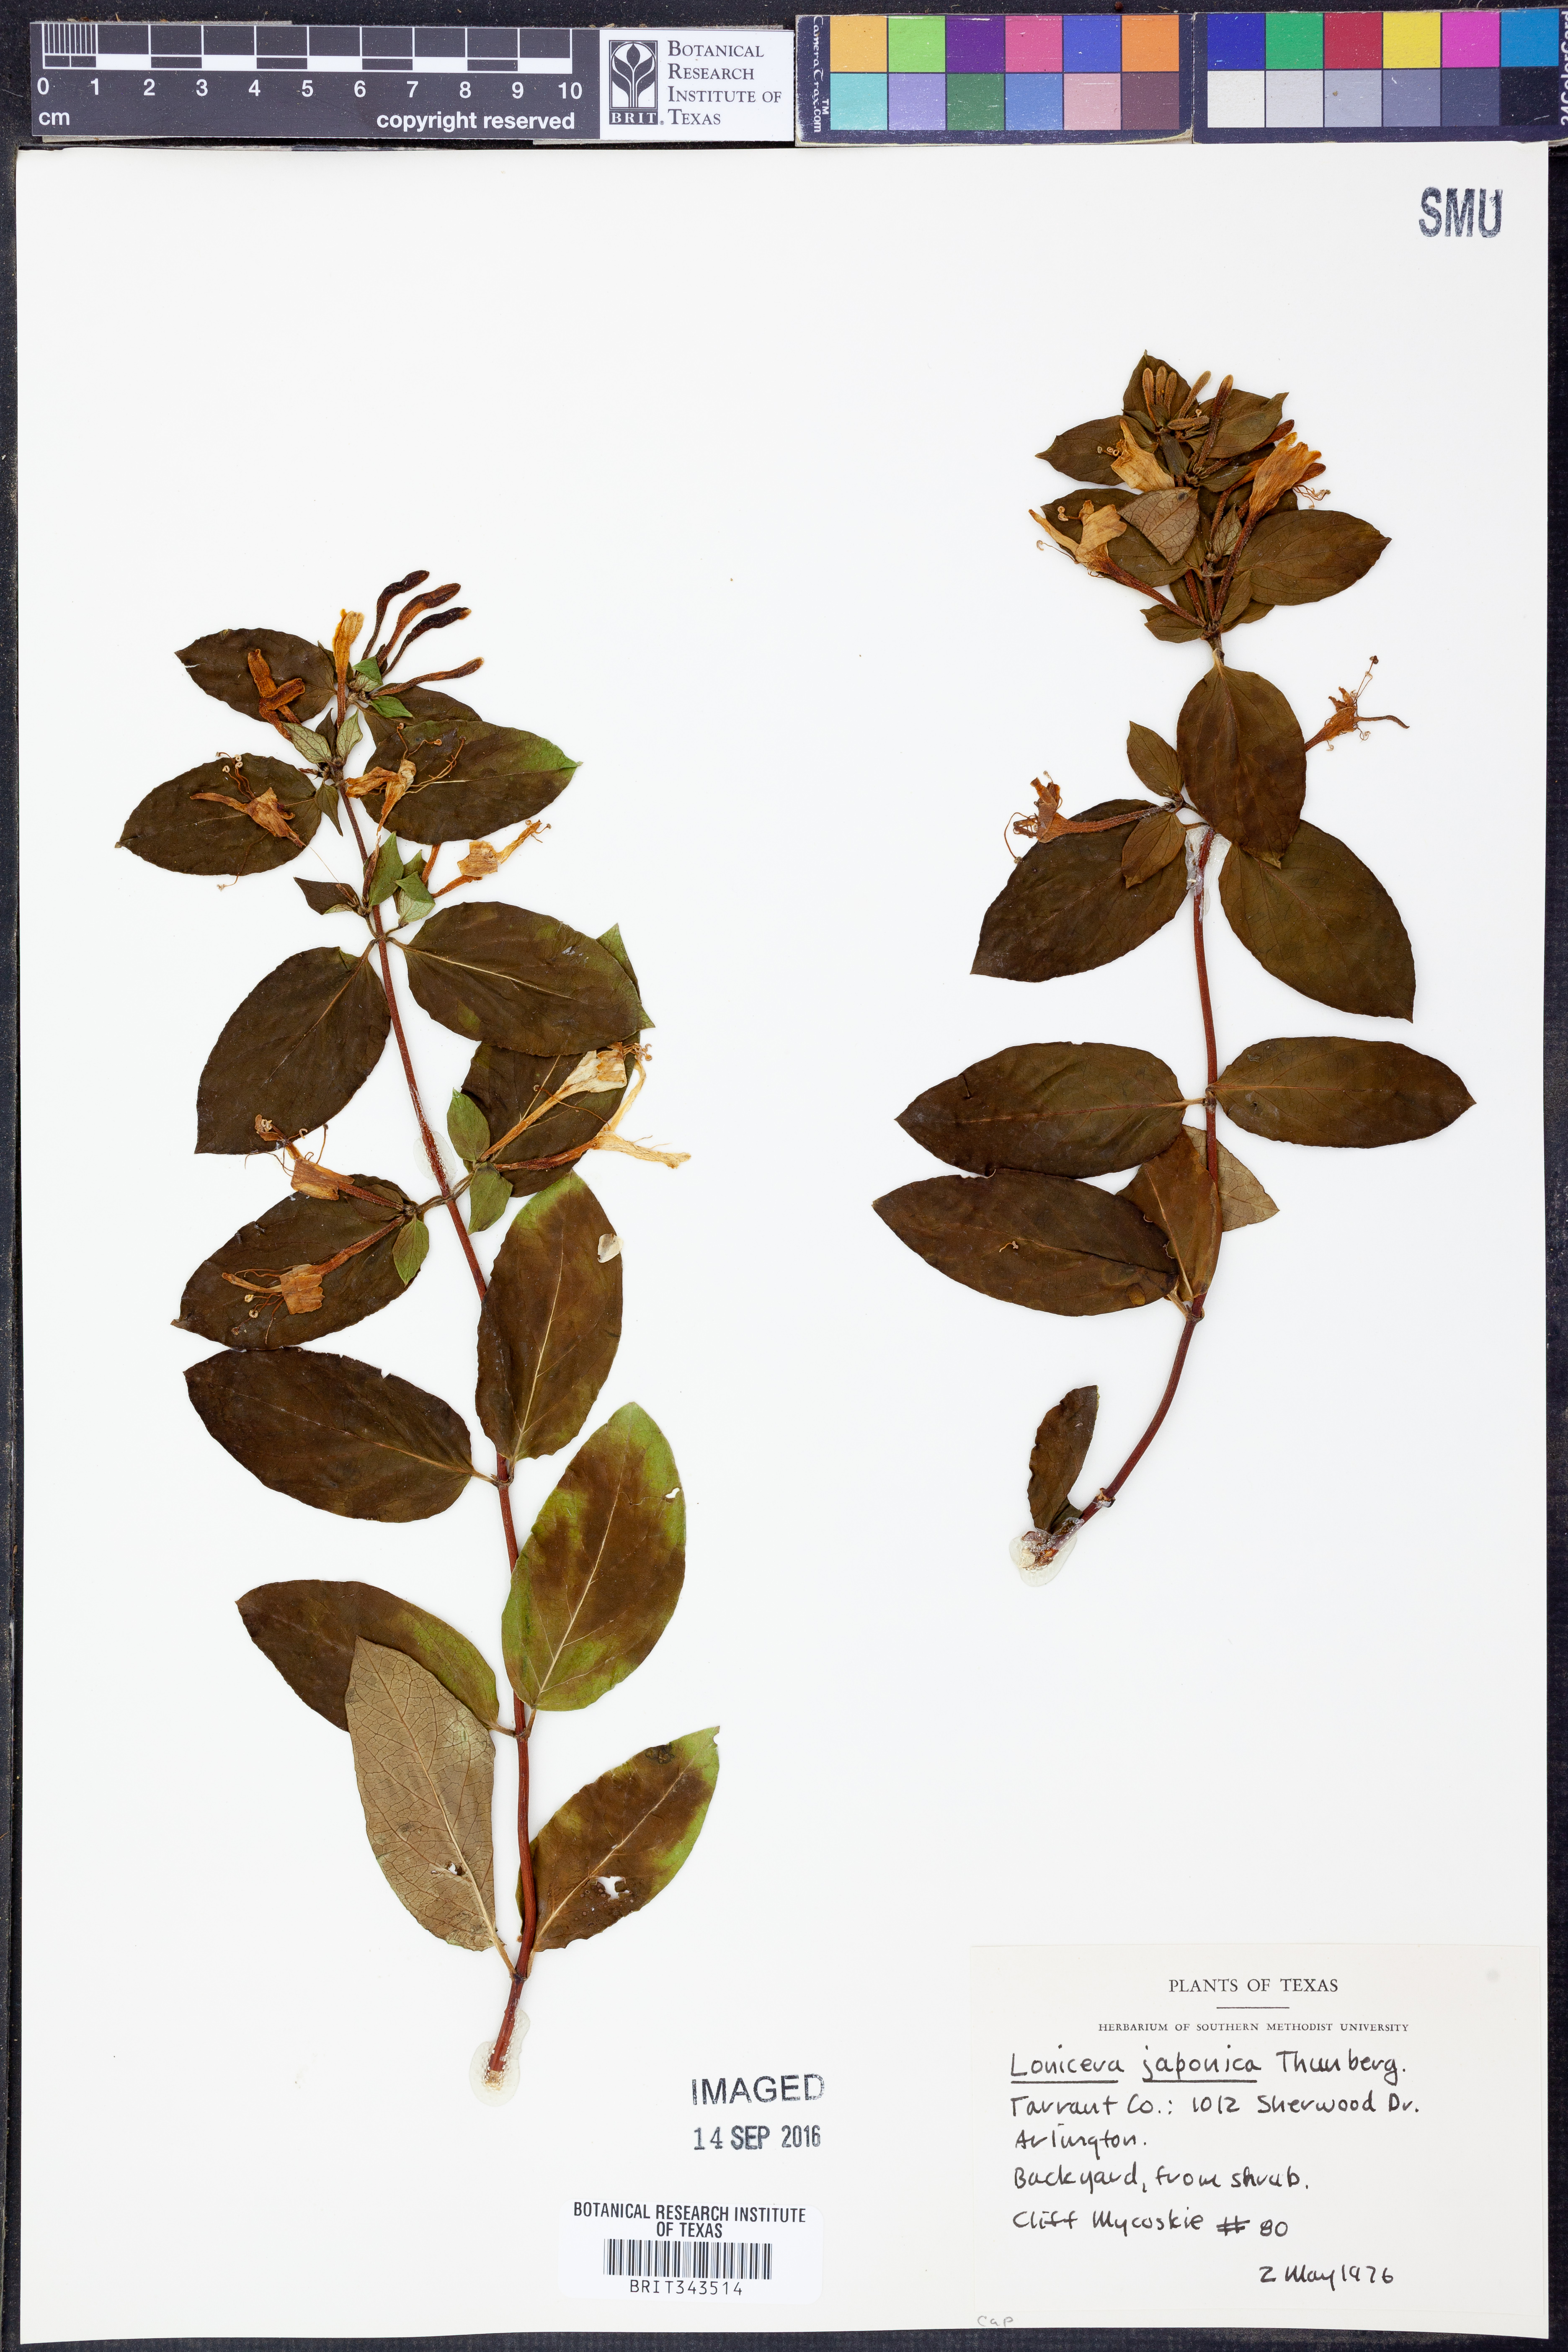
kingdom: Plantae
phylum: Tracheophyta
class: Magnoliopsida
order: Dipsacales
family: Caprifoliaceae
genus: Lonicera
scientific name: Lonicera japonica
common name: Japanese honeysuckle
